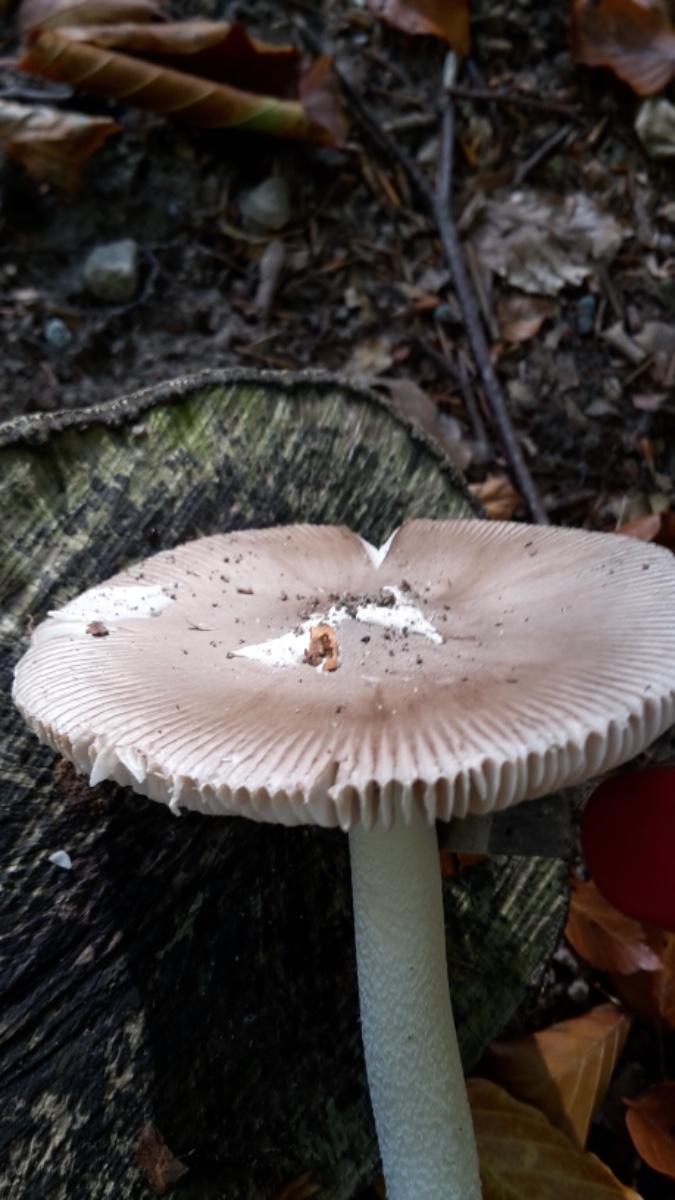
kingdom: Fungi
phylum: Basidiomycota
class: Agaricomycetes
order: Agaricales
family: Amanitaceae
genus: Amanita
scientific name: Amanita vaginata
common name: grå kam-fluesvamp
